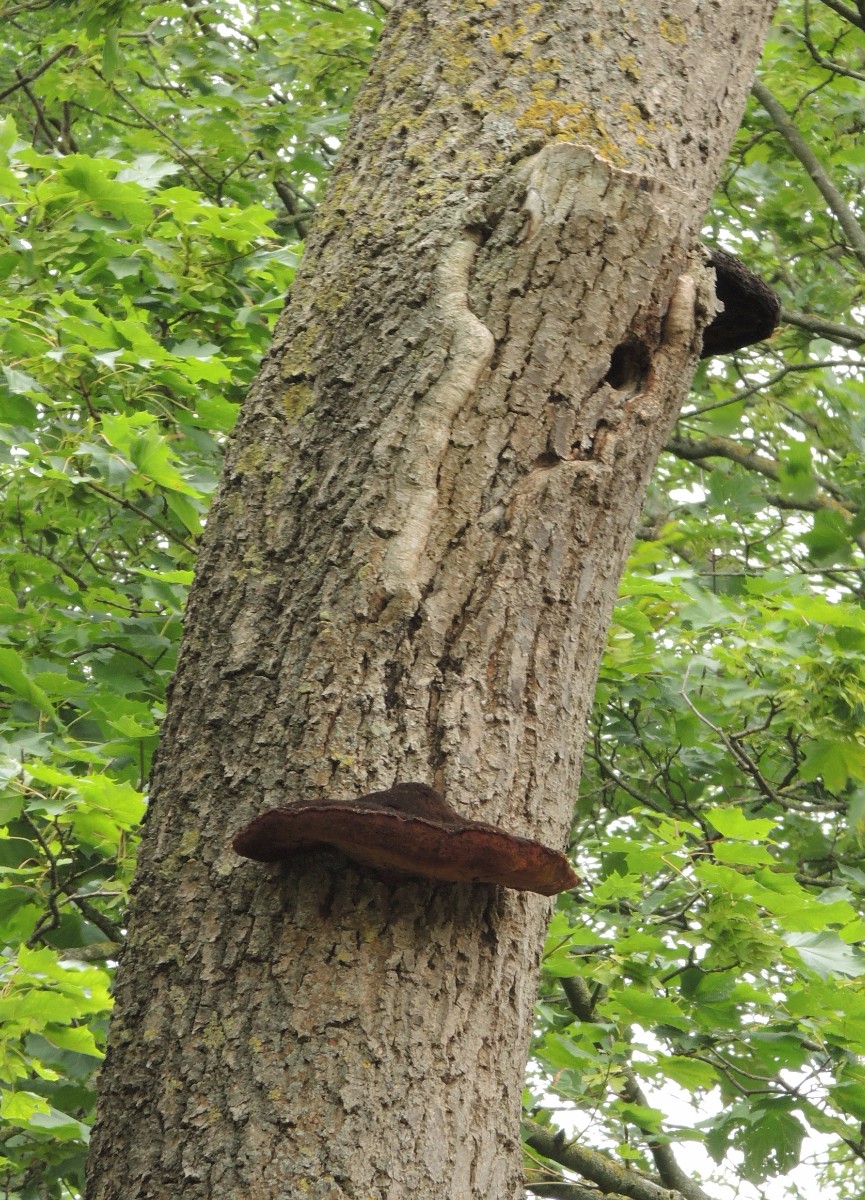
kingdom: Fungi
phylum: Basidiomycota
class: Agaricomycetes
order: Hymenochaetales
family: Hymenochaetaceae
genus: Inonotus
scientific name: Inonotus hispidus
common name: børstehåret spejlporesvamp
